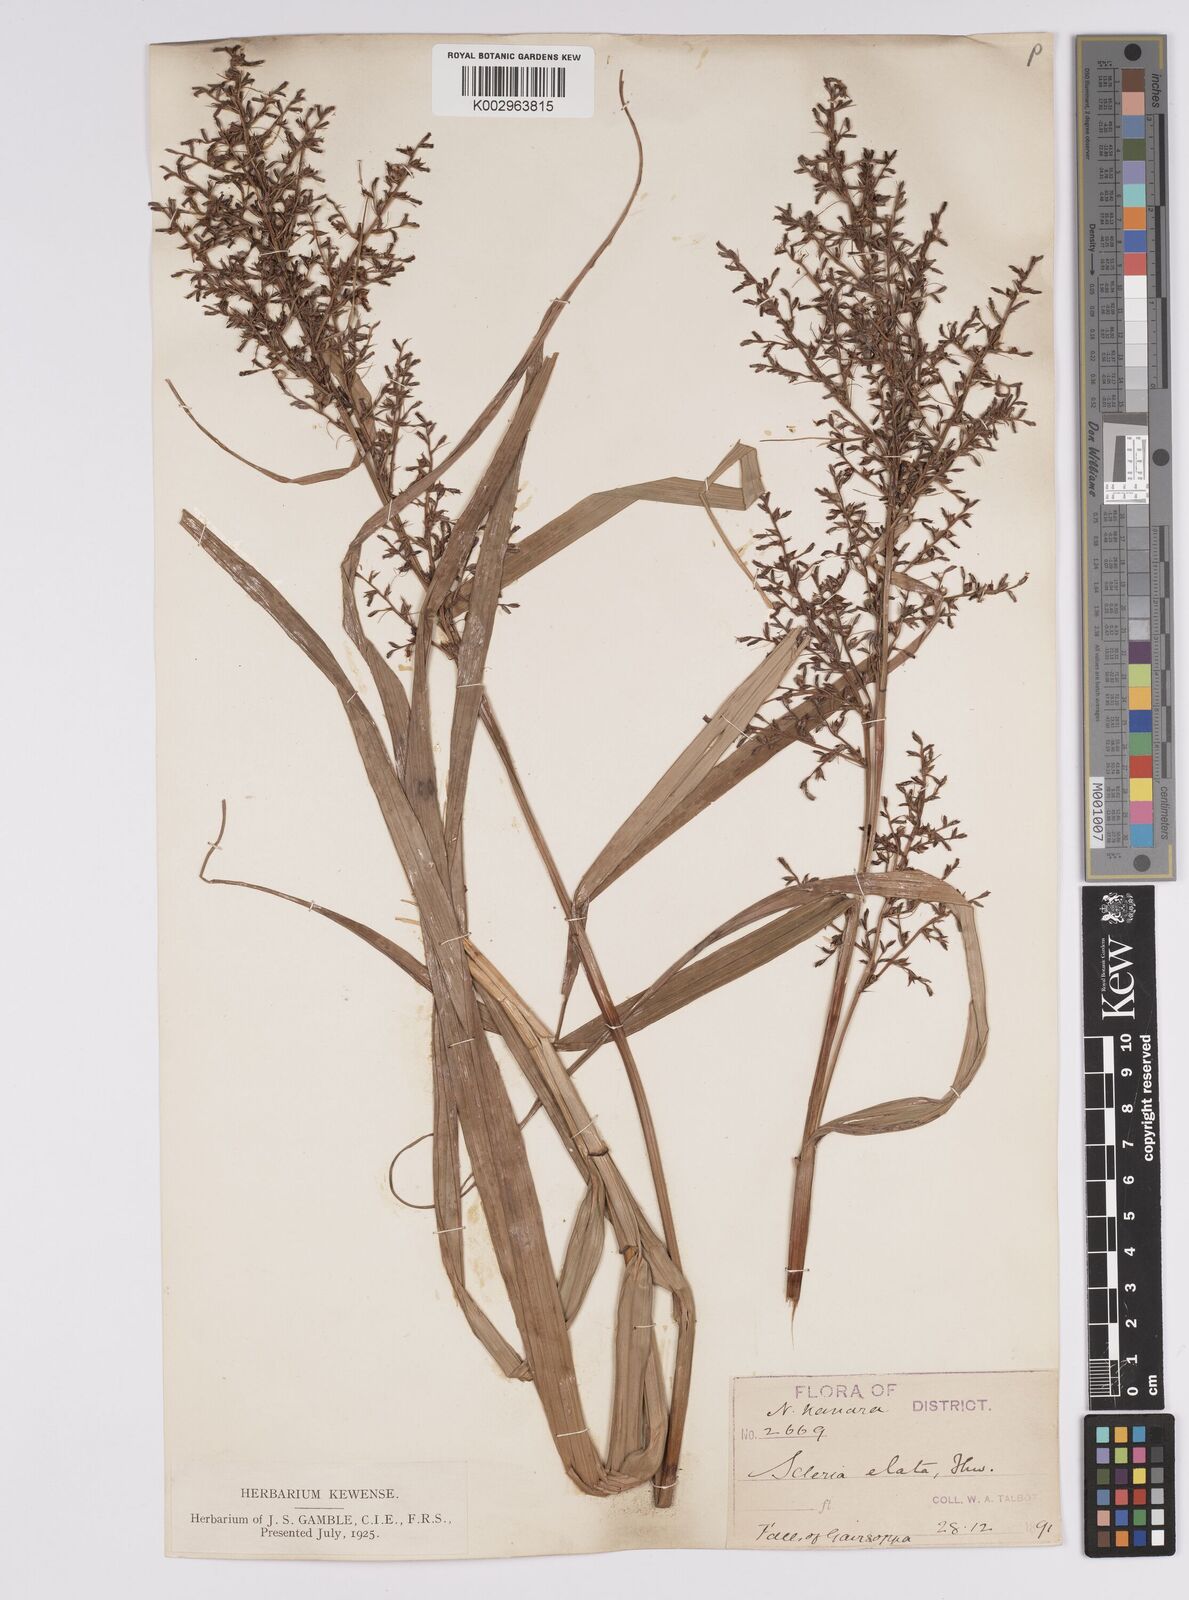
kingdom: Plantae
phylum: Tracheophyta
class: Liliopsida
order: Poales
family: Cyperaceae
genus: Scleria
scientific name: Scleria terrestris
